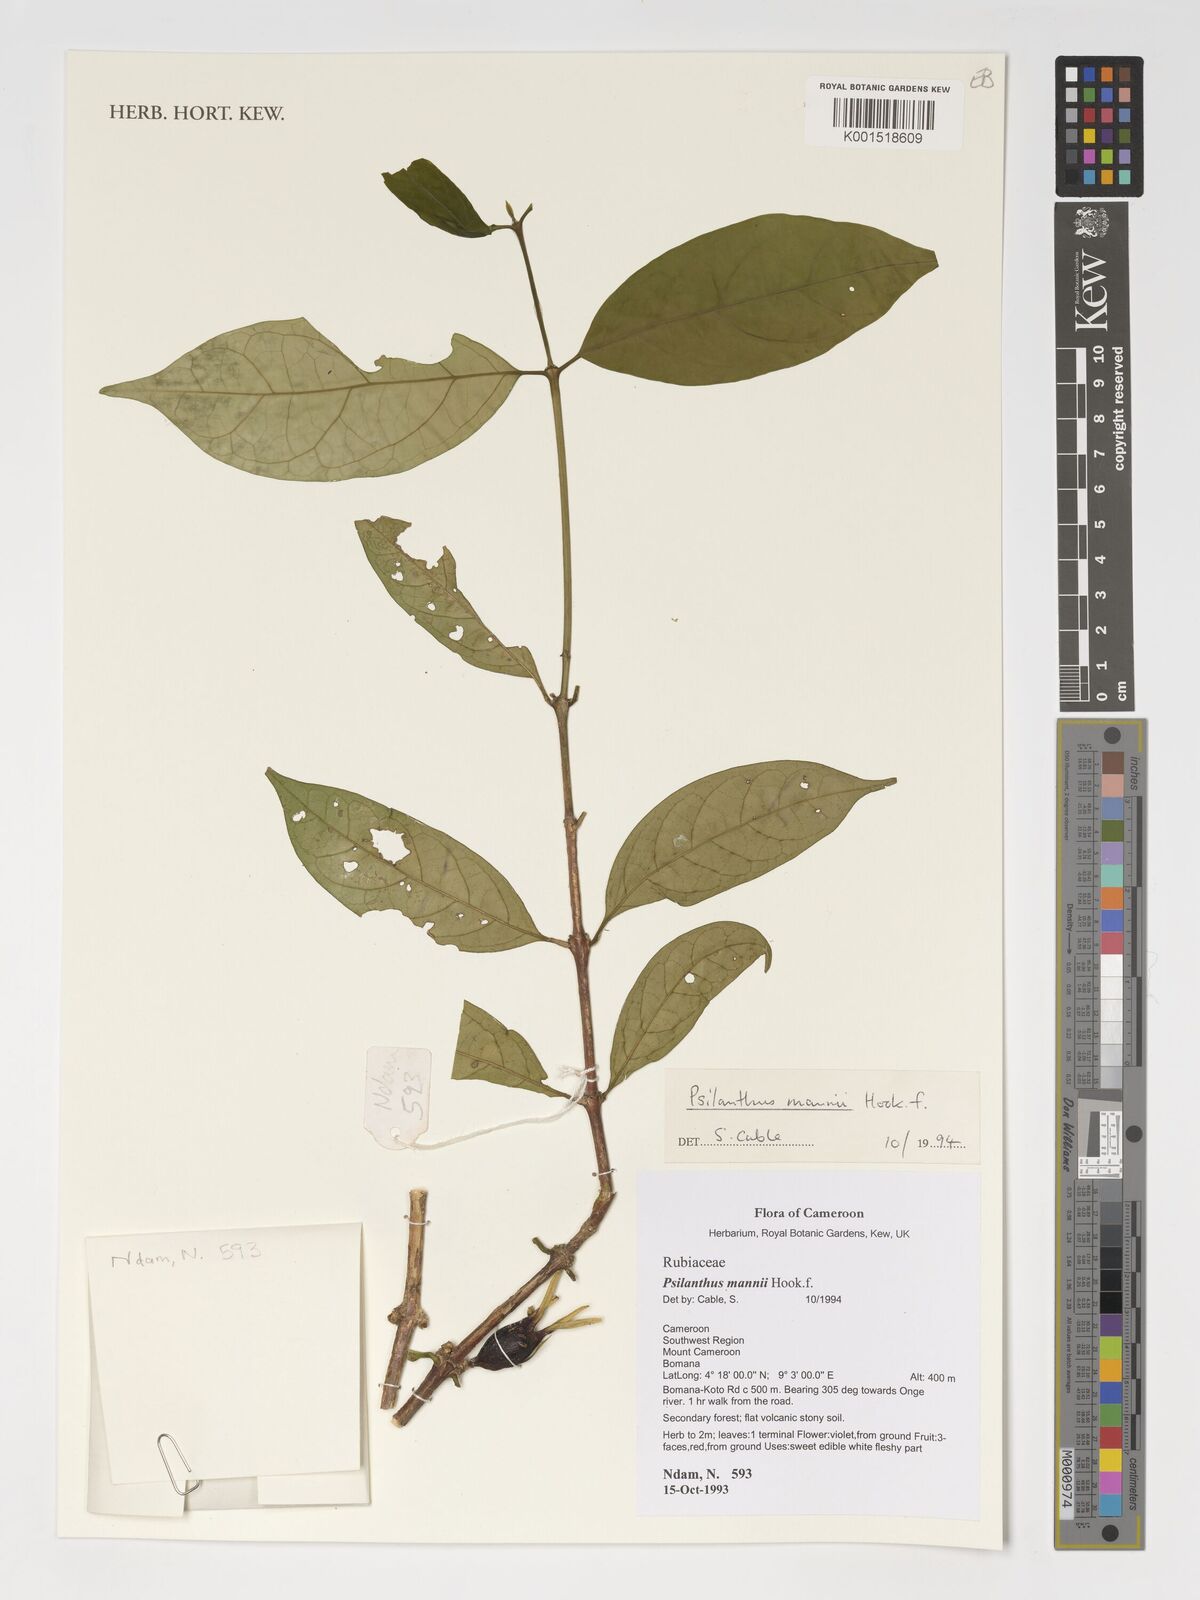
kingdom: Plantae
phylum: Tracheophyta
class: Magnoliopsida
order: Gentianales
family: Rubiaceae
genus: Coffea
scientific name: Coffea mannii
